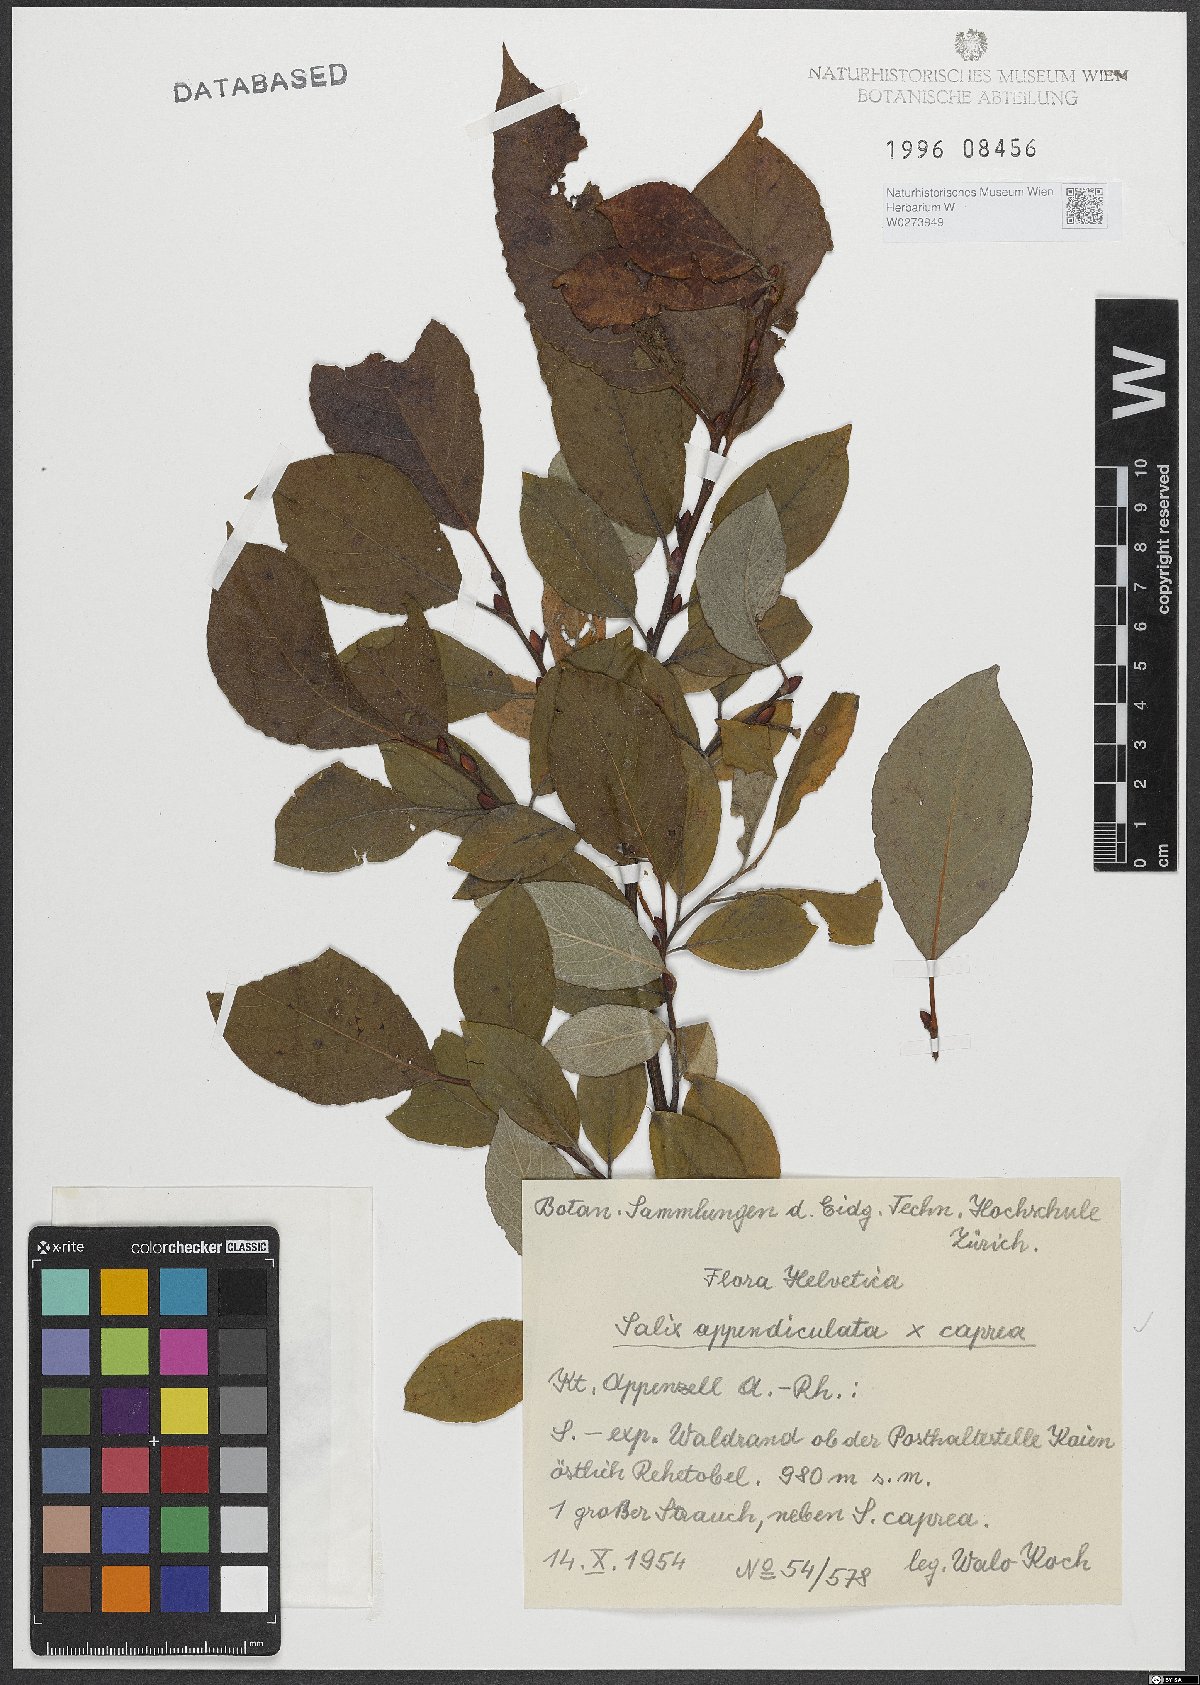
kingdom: Plantae
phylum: Tracheophyta
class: Magnoliopsida
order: Malpighiales
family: Salicaceae
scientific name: Salicaceae
